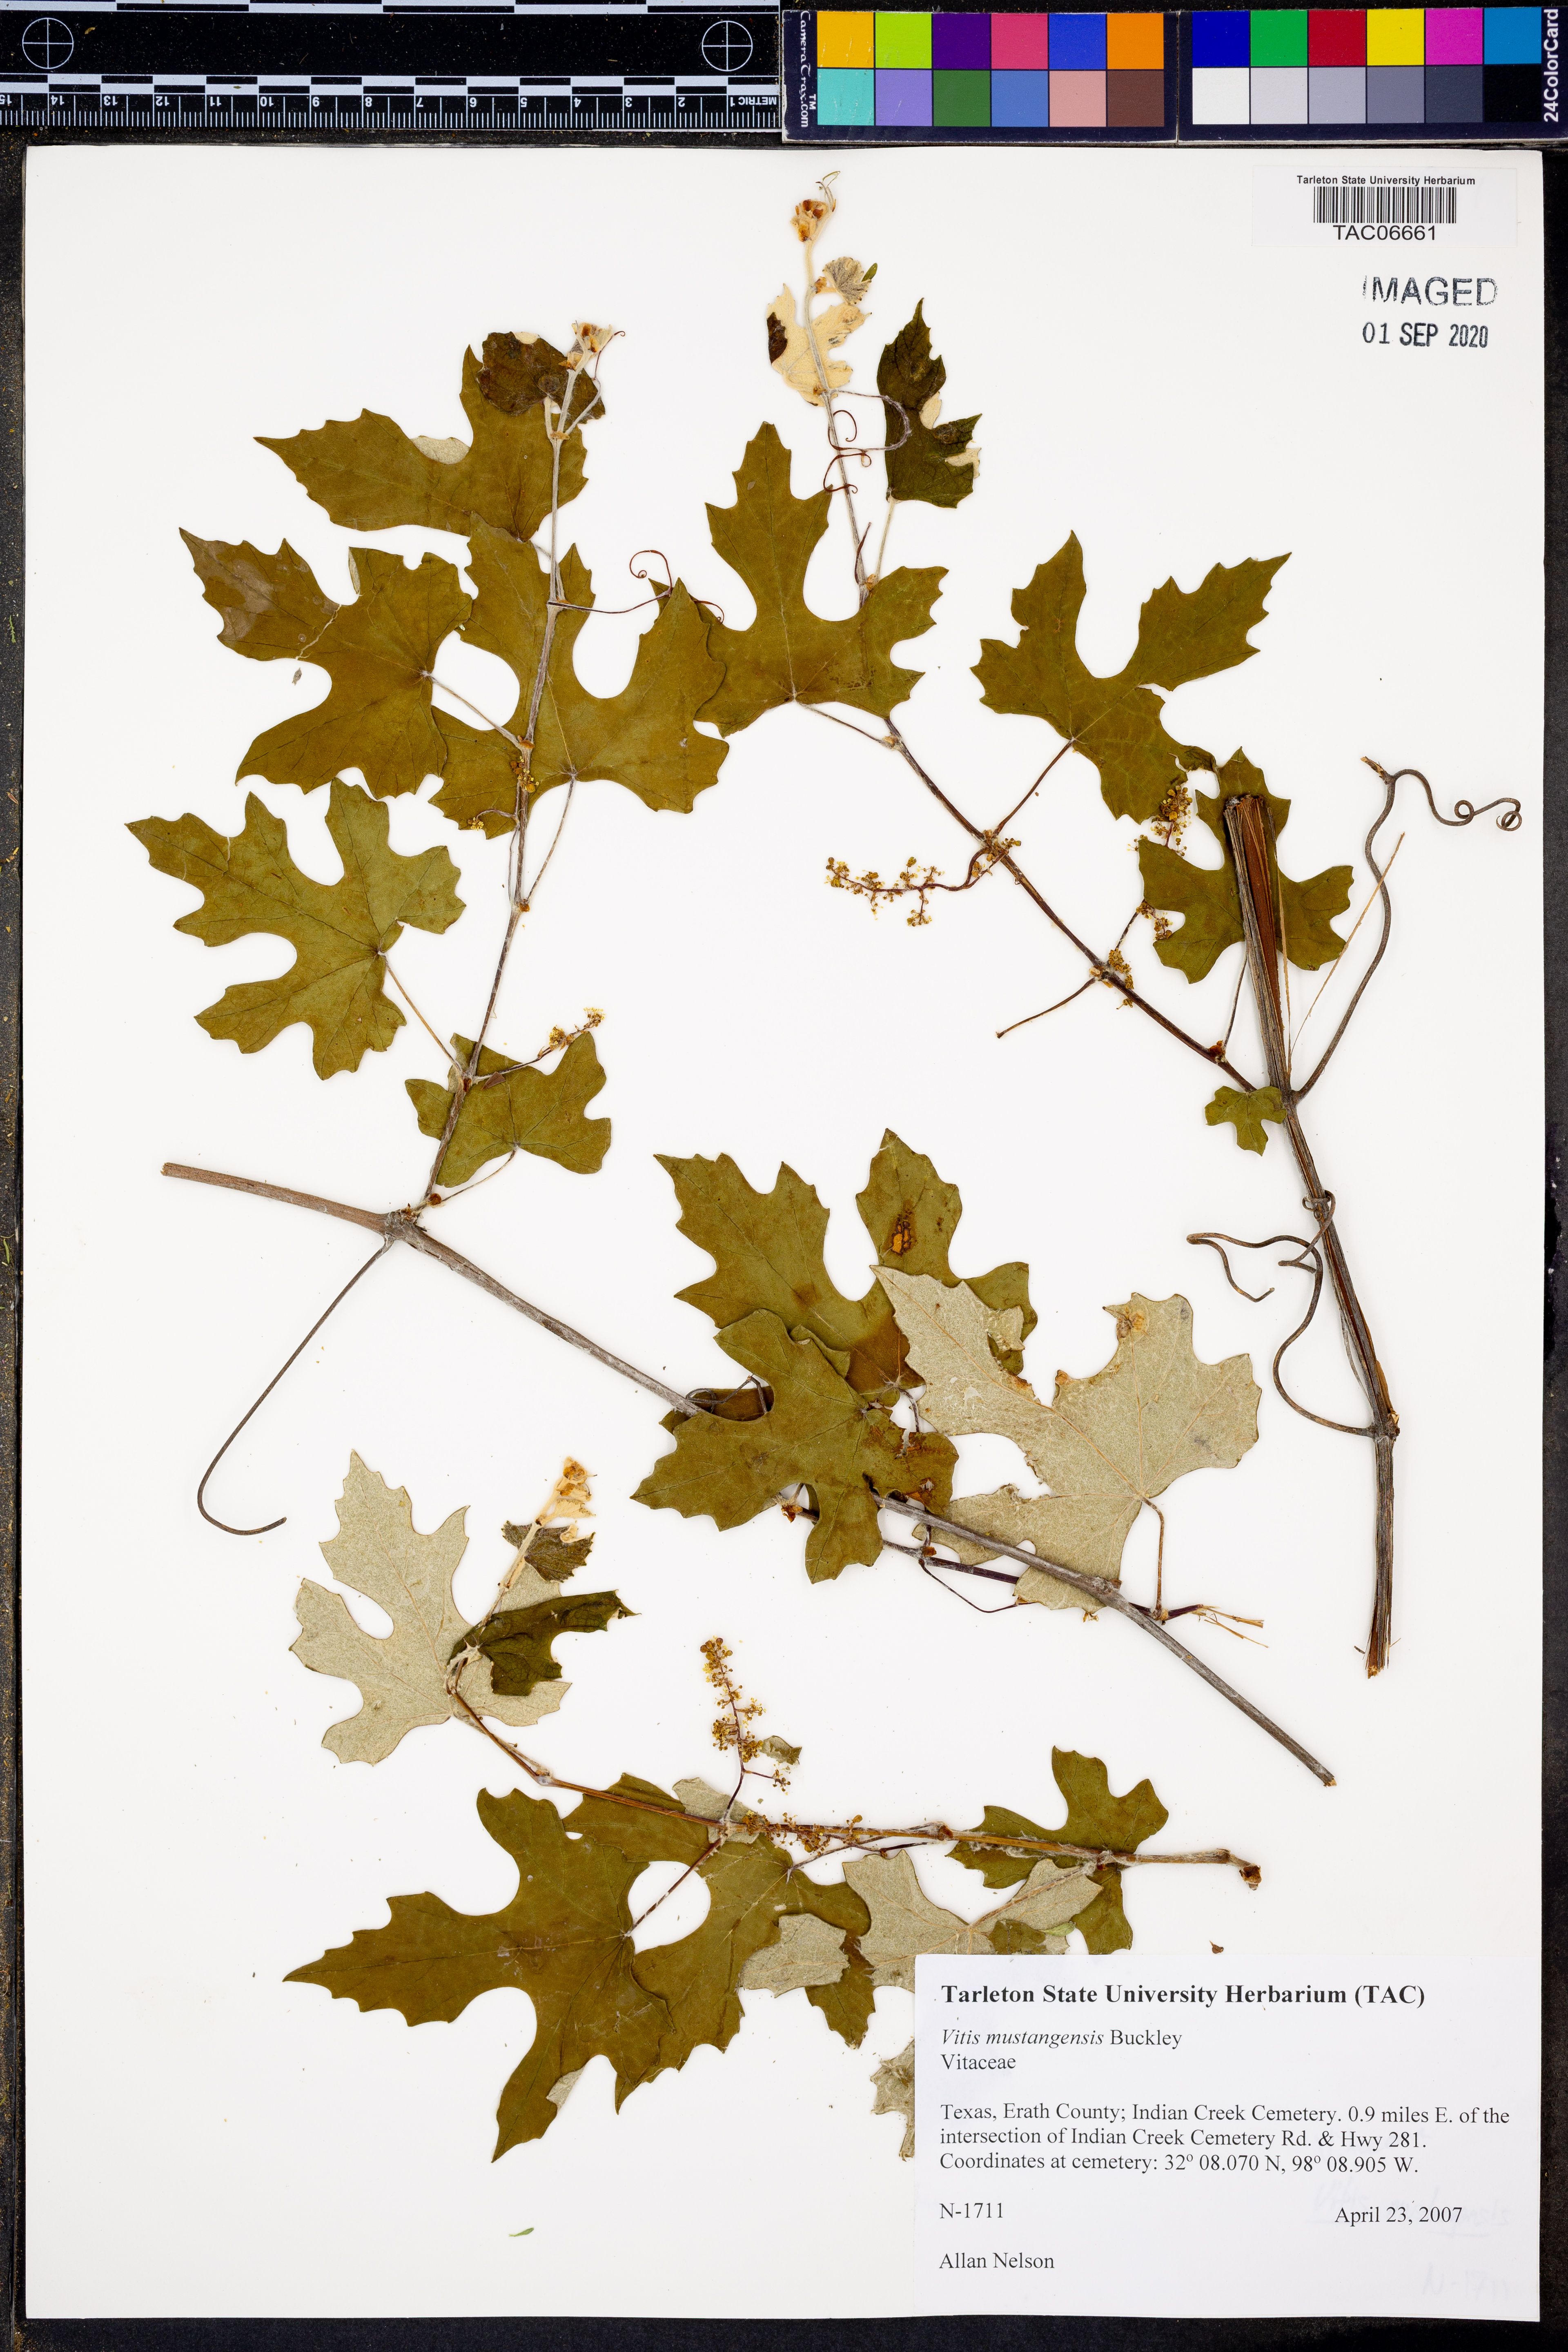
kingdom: Plantae
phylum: Tracheophyta
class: Magnoliopsida
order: Vitales
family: Vitaceae
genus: Vitis
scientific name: Vitis mustangensis
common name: Mustang grape
